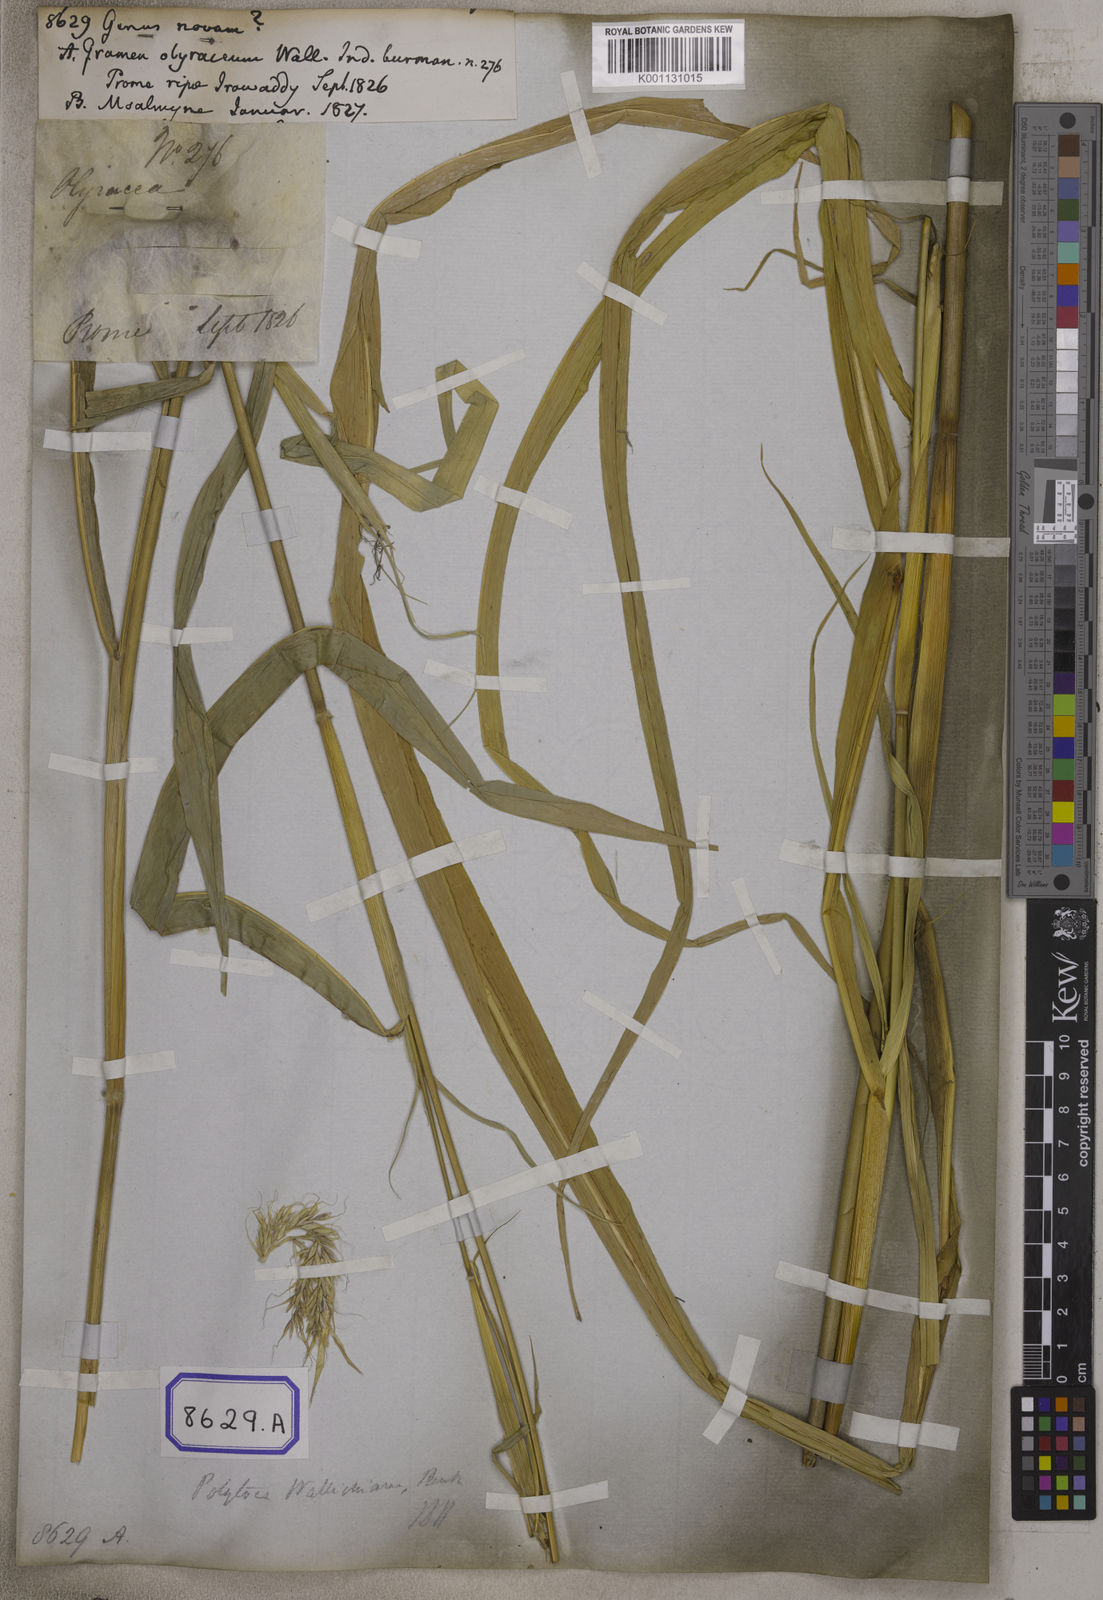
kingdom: Plantae
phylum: Tracheophyta
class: Liliopsida
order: Poales
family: Poaceae
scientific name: Poaceae
